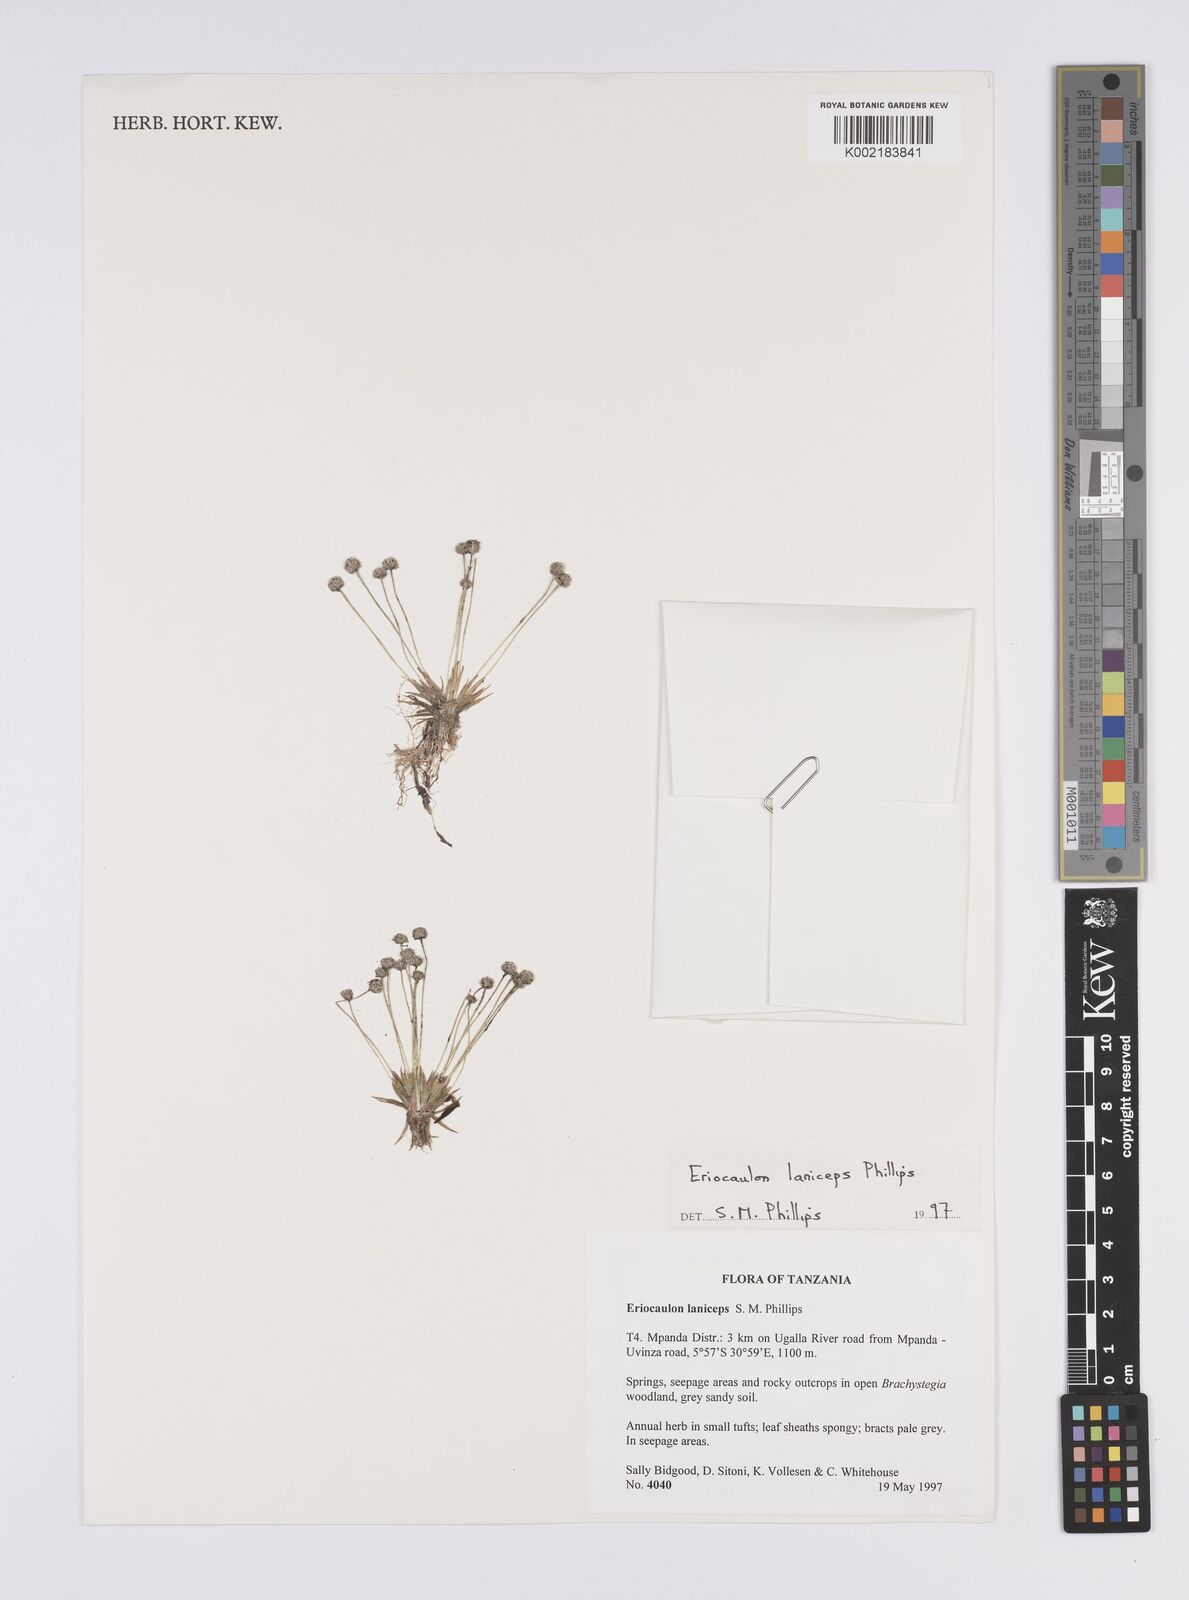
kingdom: Plantae
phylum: Tracheophyta
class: Liliopsida
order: Poales
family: Eriocaulaceae
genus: Eriocaulon
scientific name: Eriocaulon laniceps
